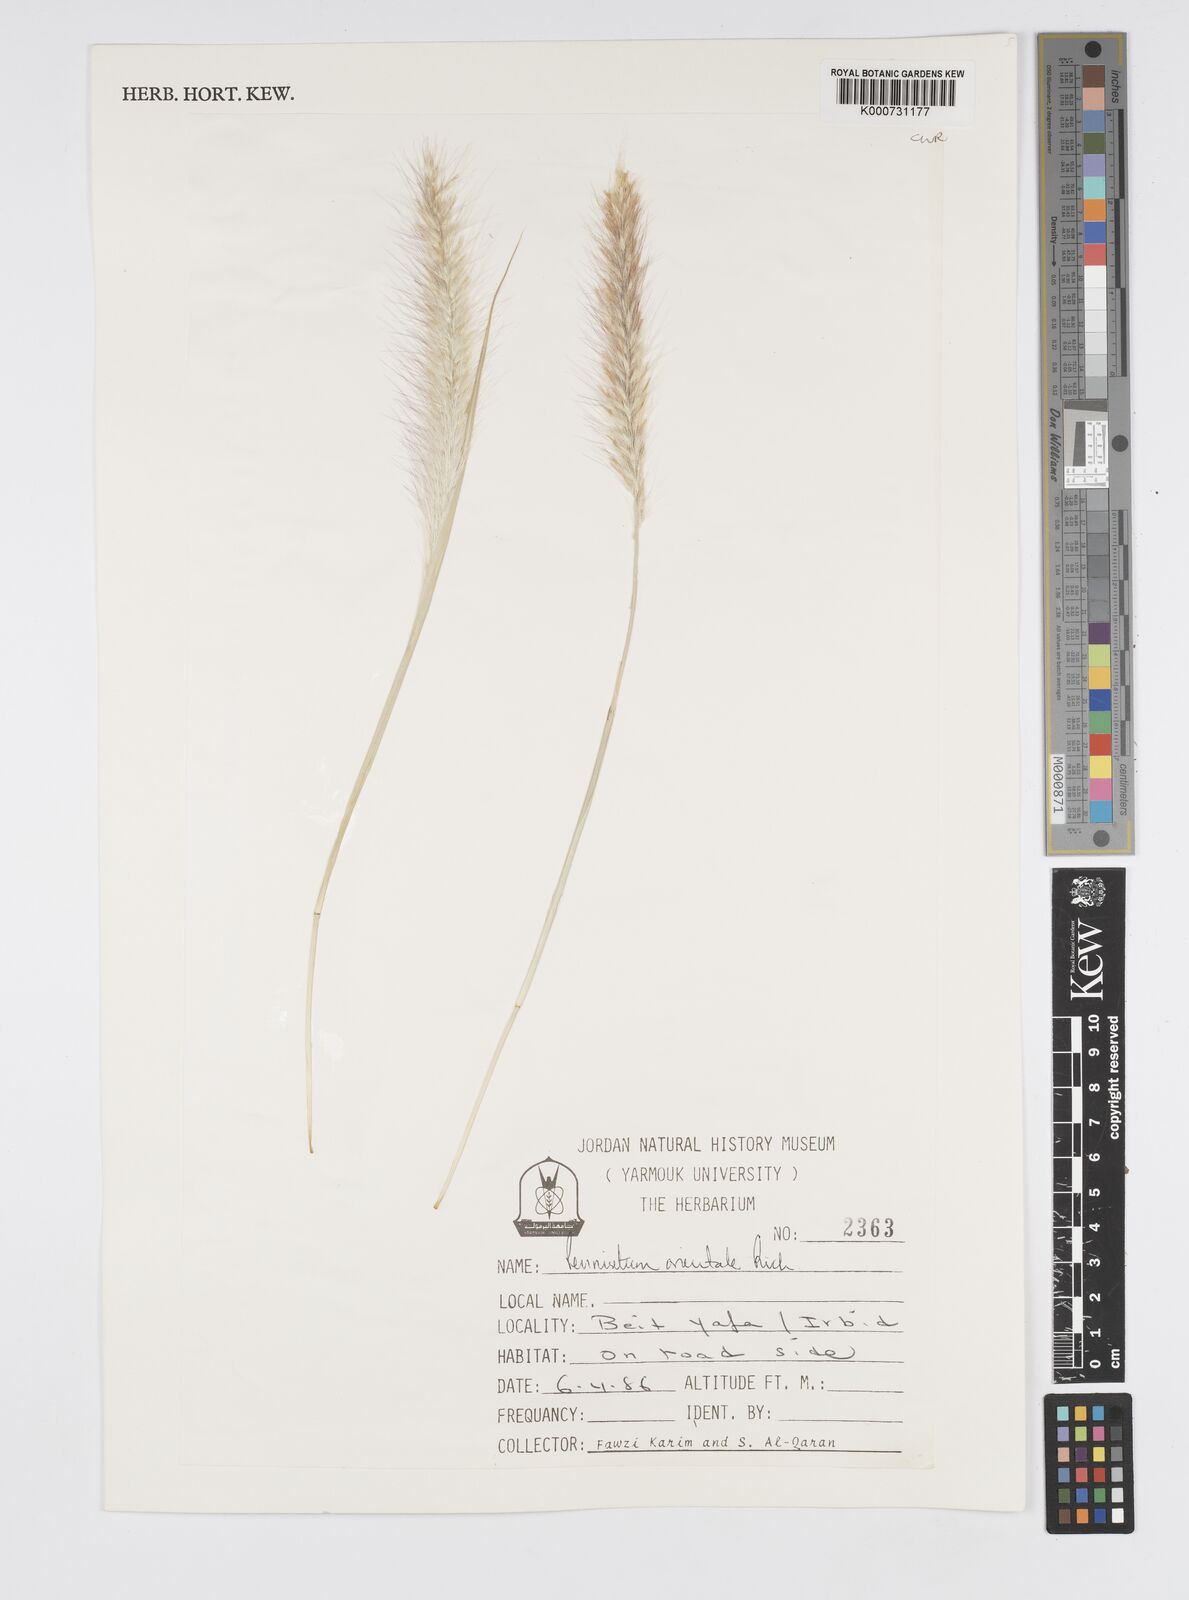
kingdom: Plantae
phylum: Tracheophyta
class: Liliopsida
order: Poales
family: Poaceae
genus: Cenchrus
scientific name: Cenchrus orientalis
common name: Oriental fountain grass
